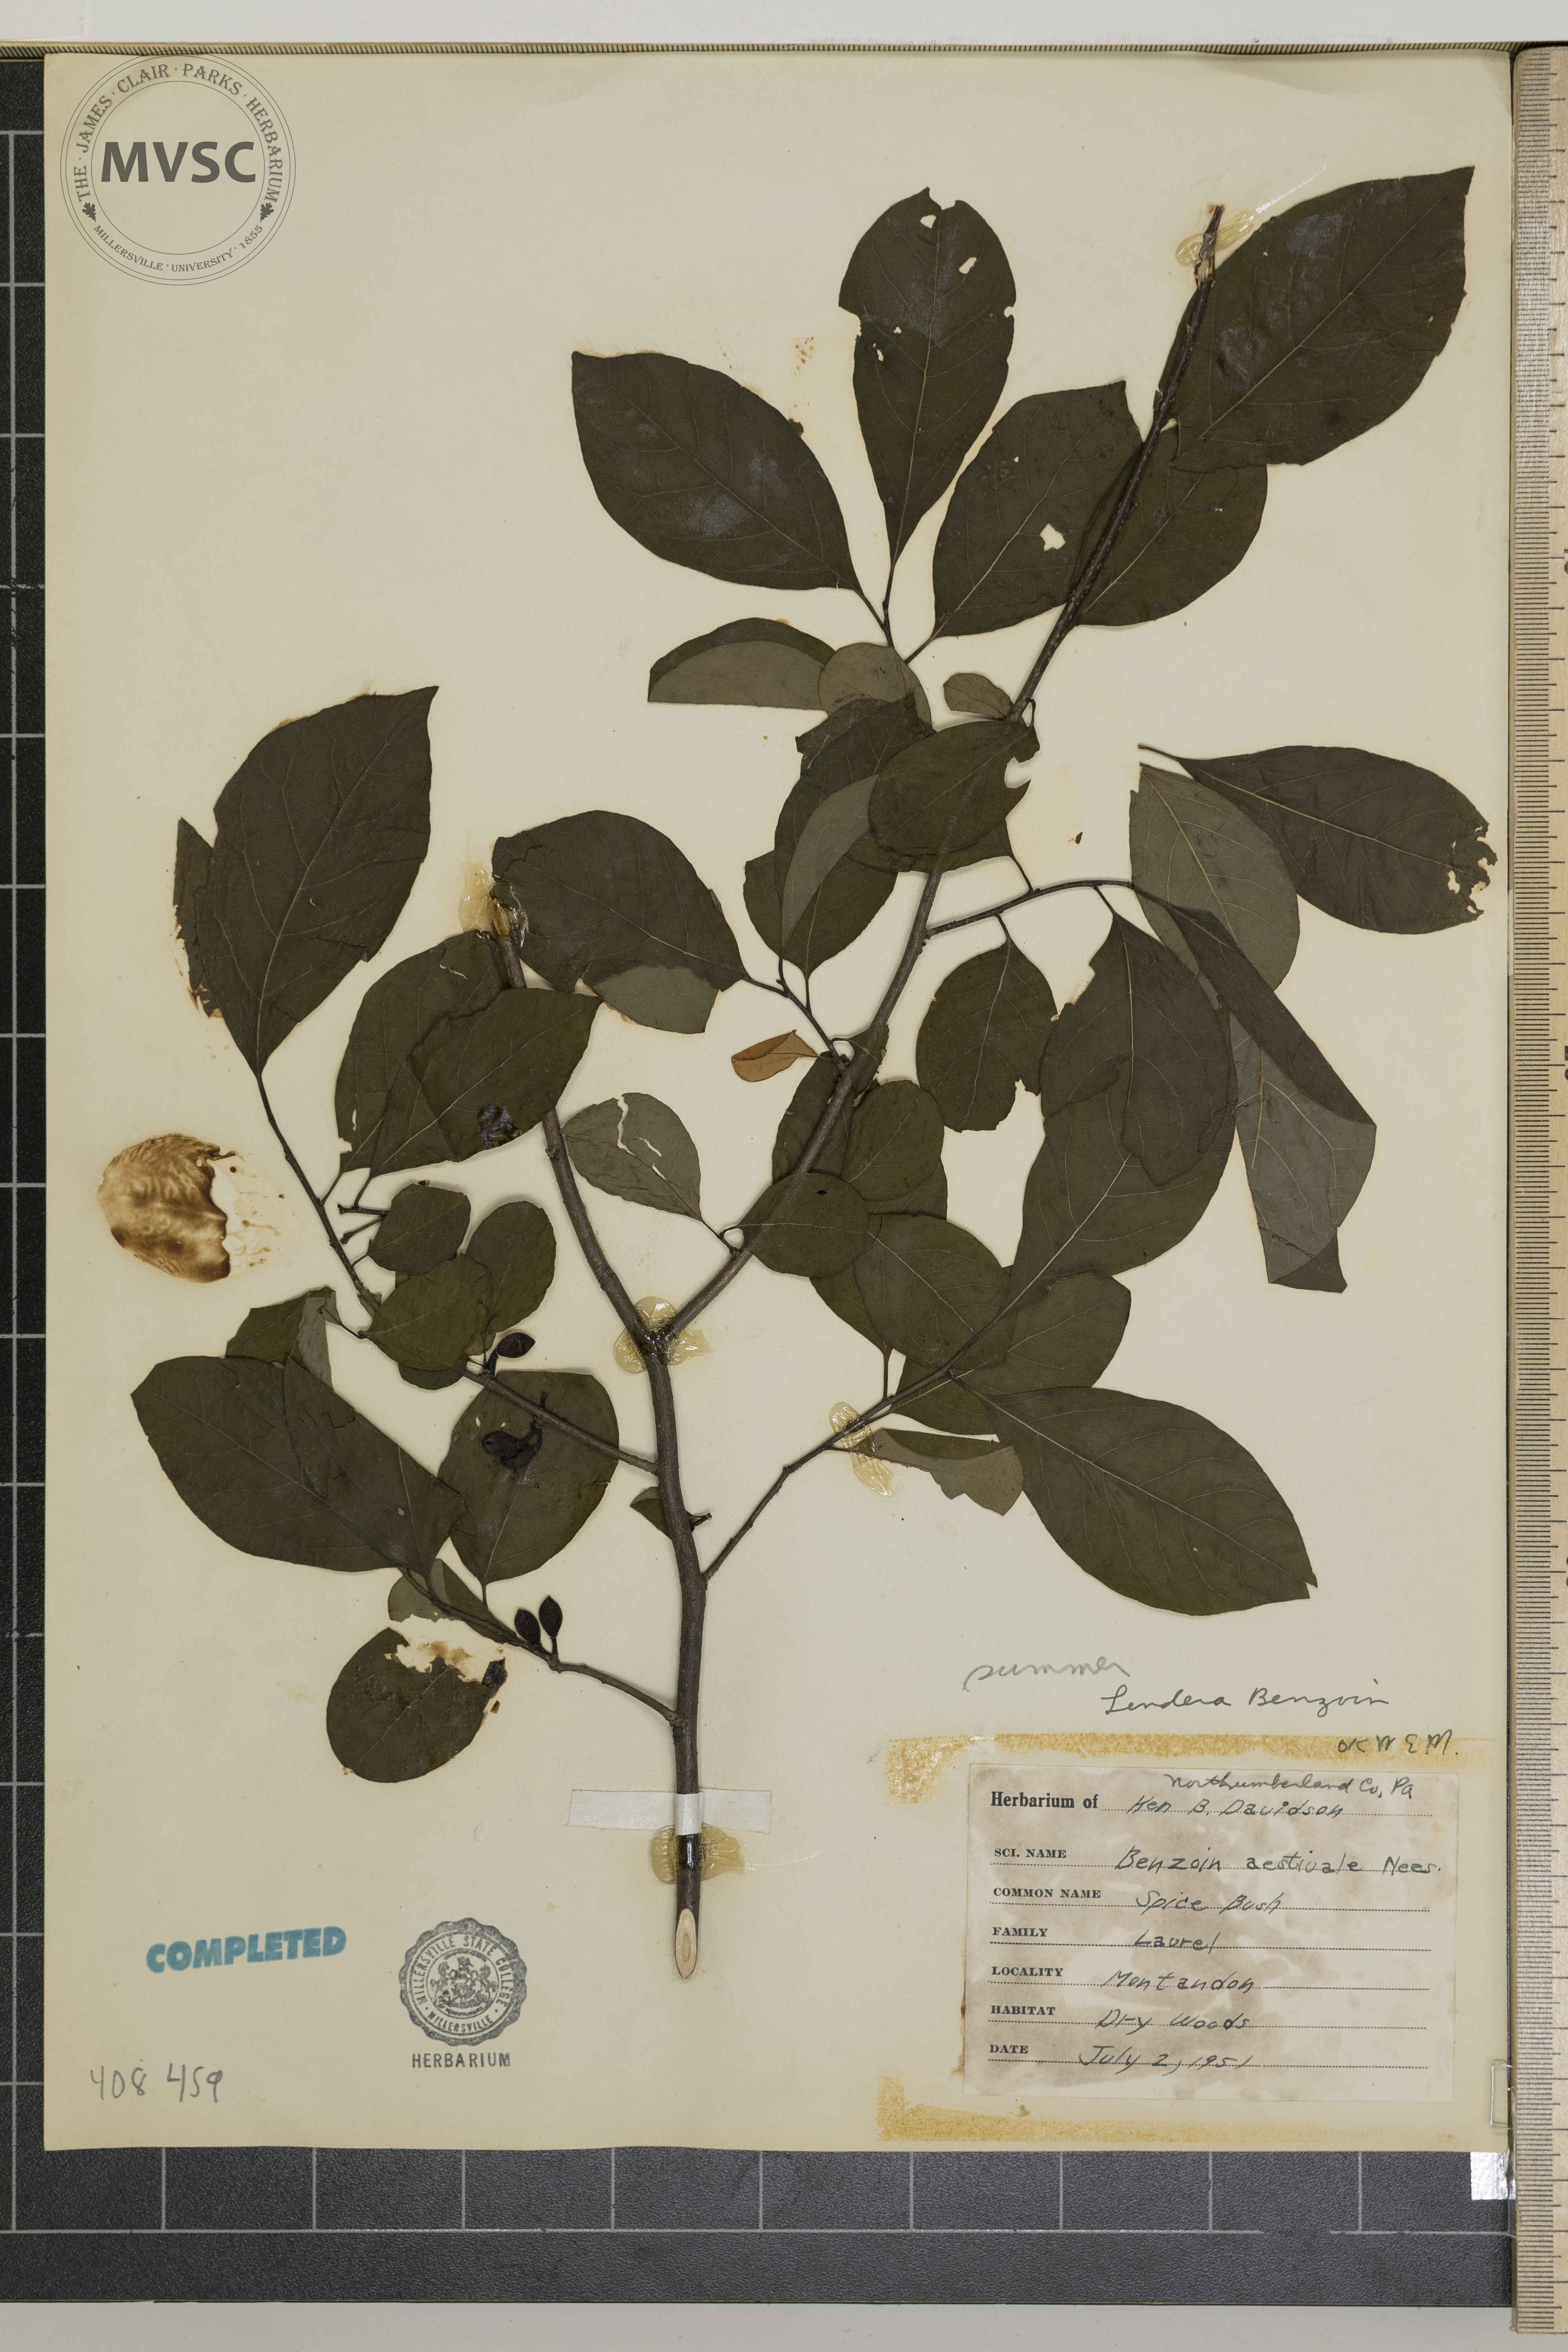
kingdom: Plantae
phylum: Tracheophyta
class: Magnoliopsida
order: Laurales
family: Lauraceae
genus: Lindera
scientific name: Lindera benzoin
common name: Spicebush
